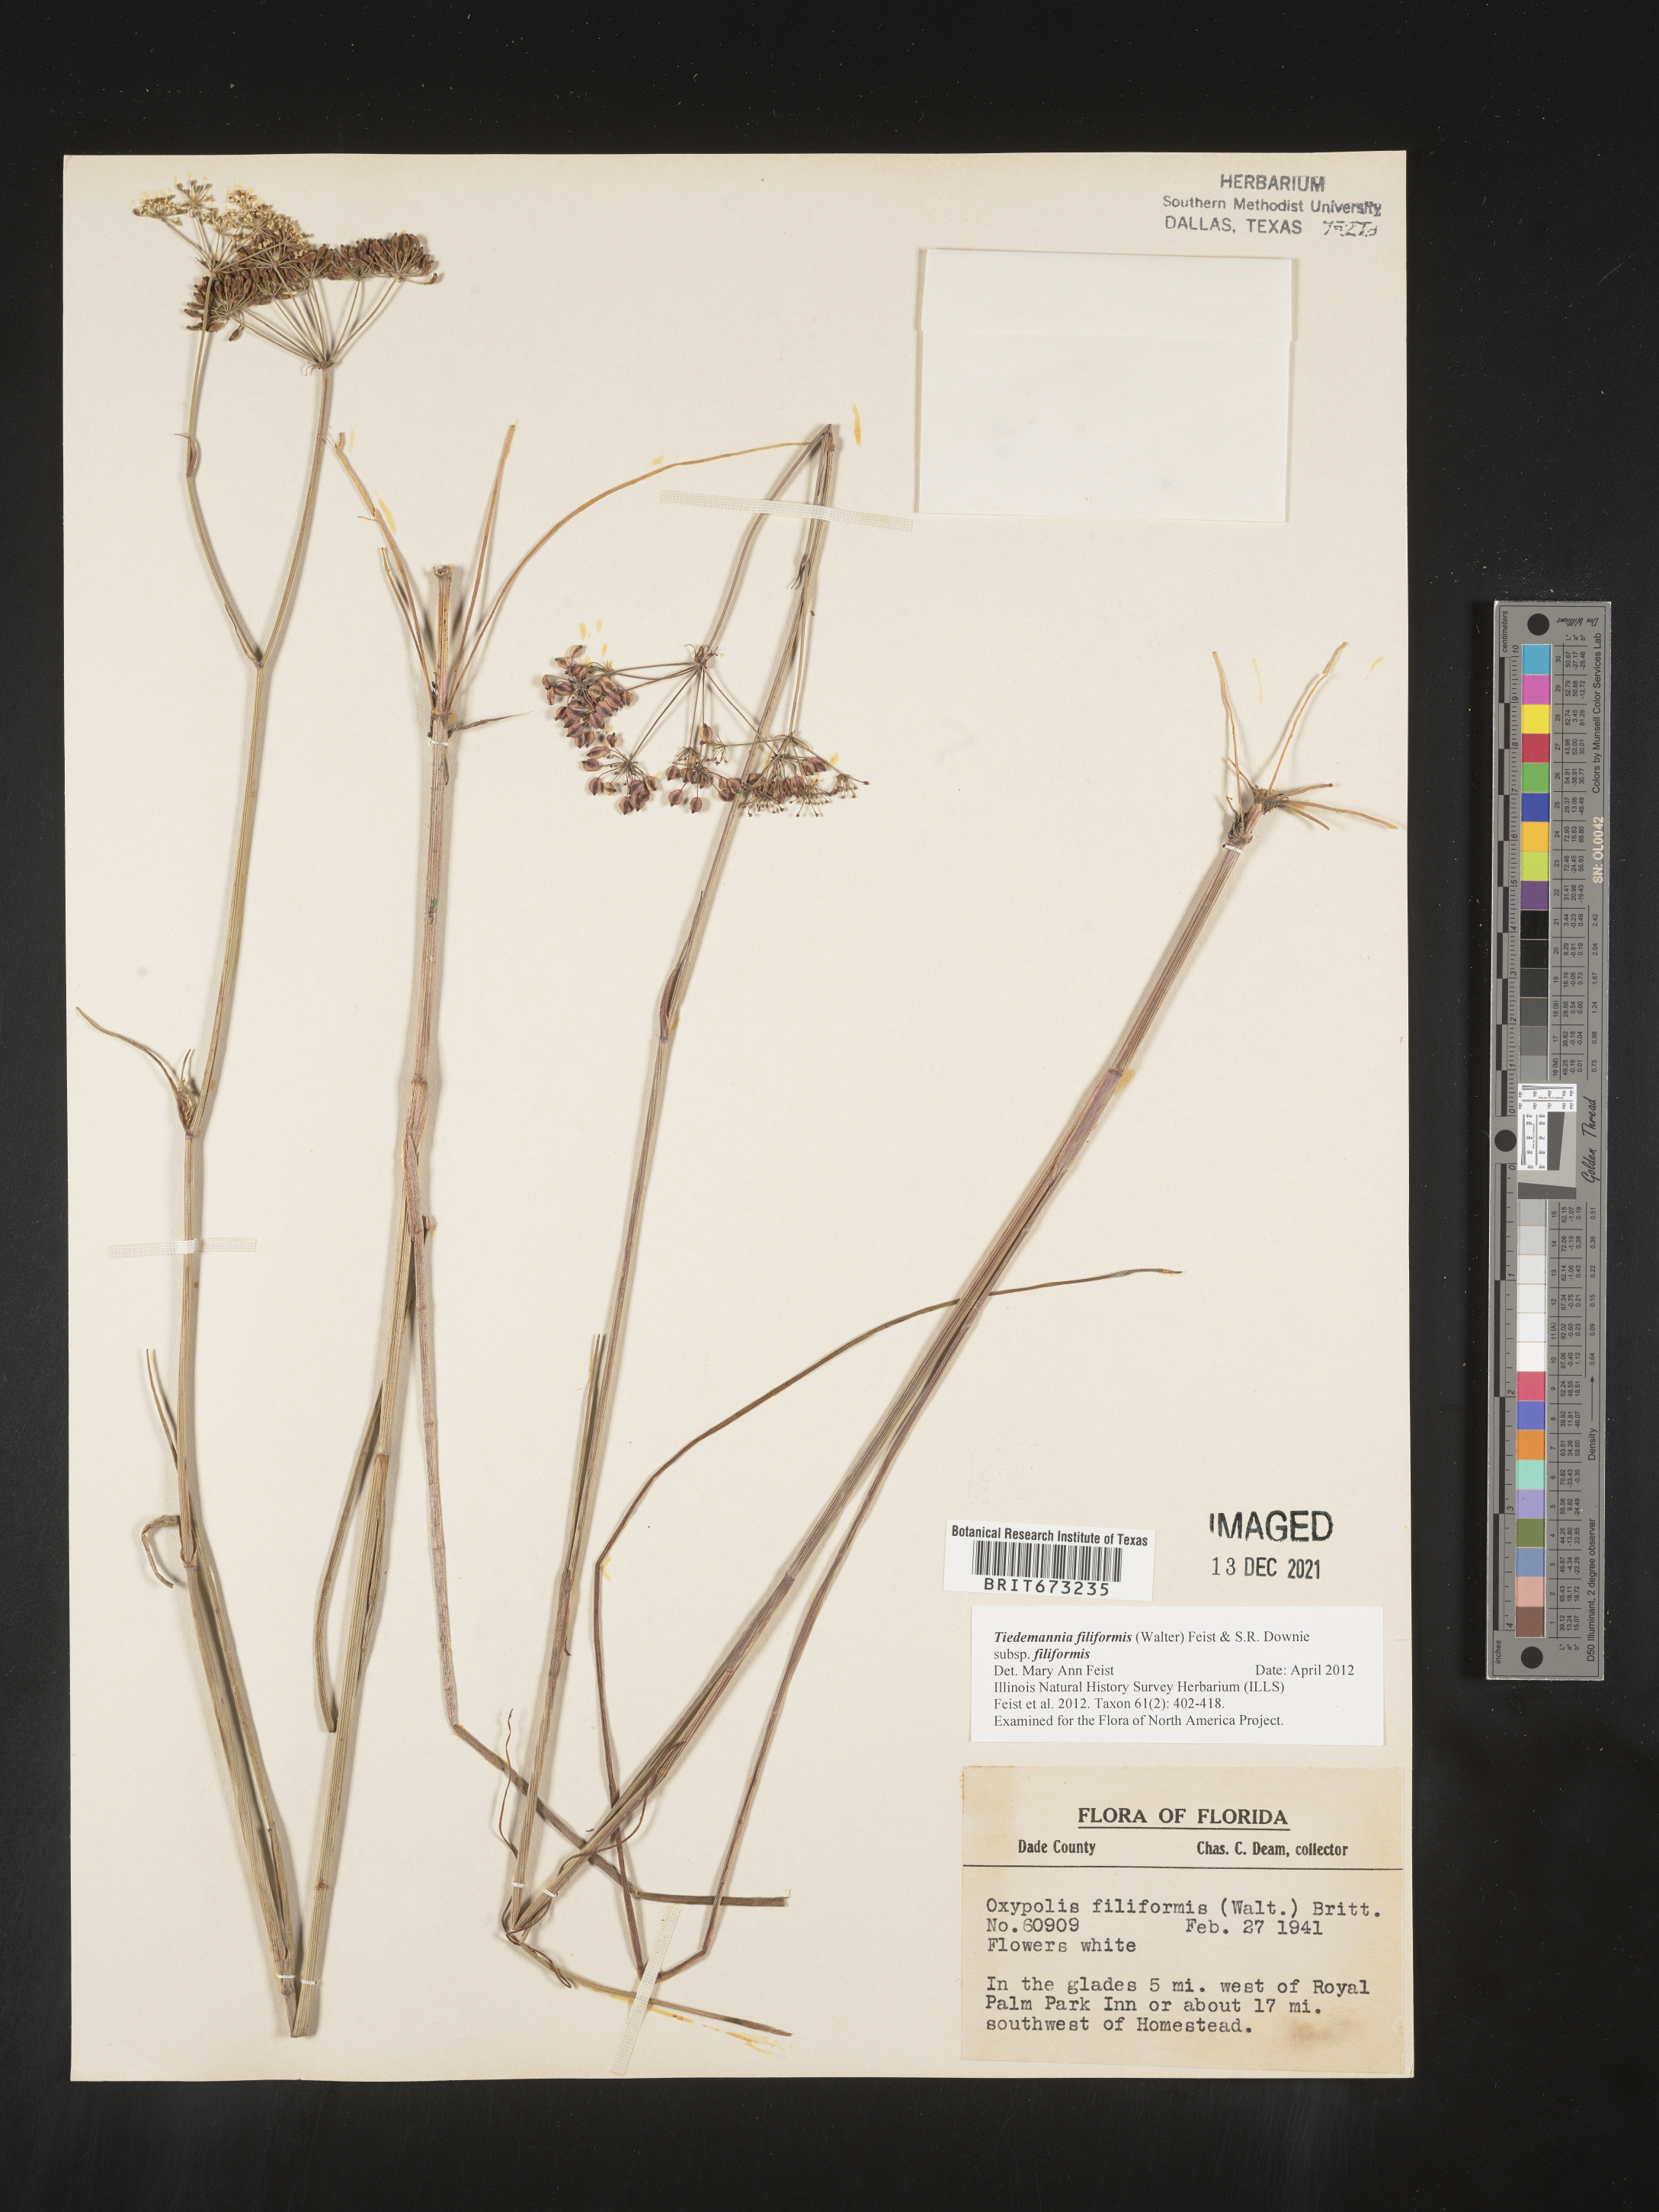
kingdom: Plantae
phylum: Tracheophyta
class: Magnoliopsida
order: Apiales
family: Apiaceae
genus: Tiedemannia
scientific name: Tiedemannia
